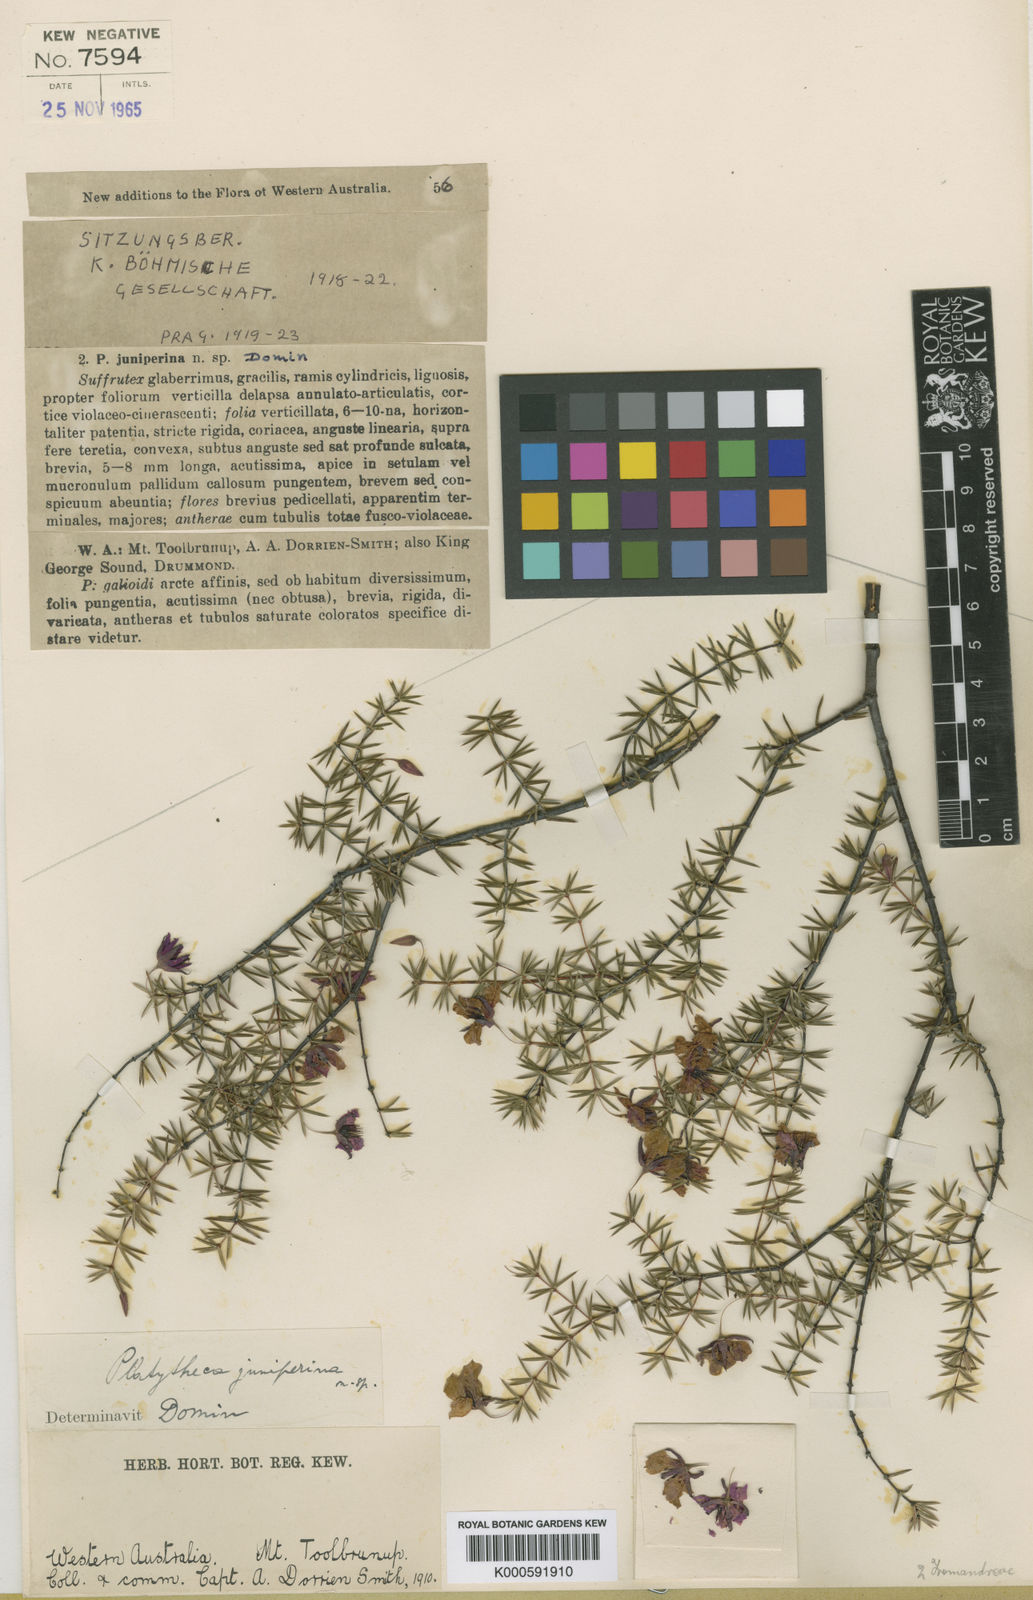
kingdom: Plantae
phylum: Tracheophyta
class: Magnoliopsida
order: Oxalidales
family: Elaeocarpaceae
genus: Platytheca
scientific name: Platytheca juniperina
